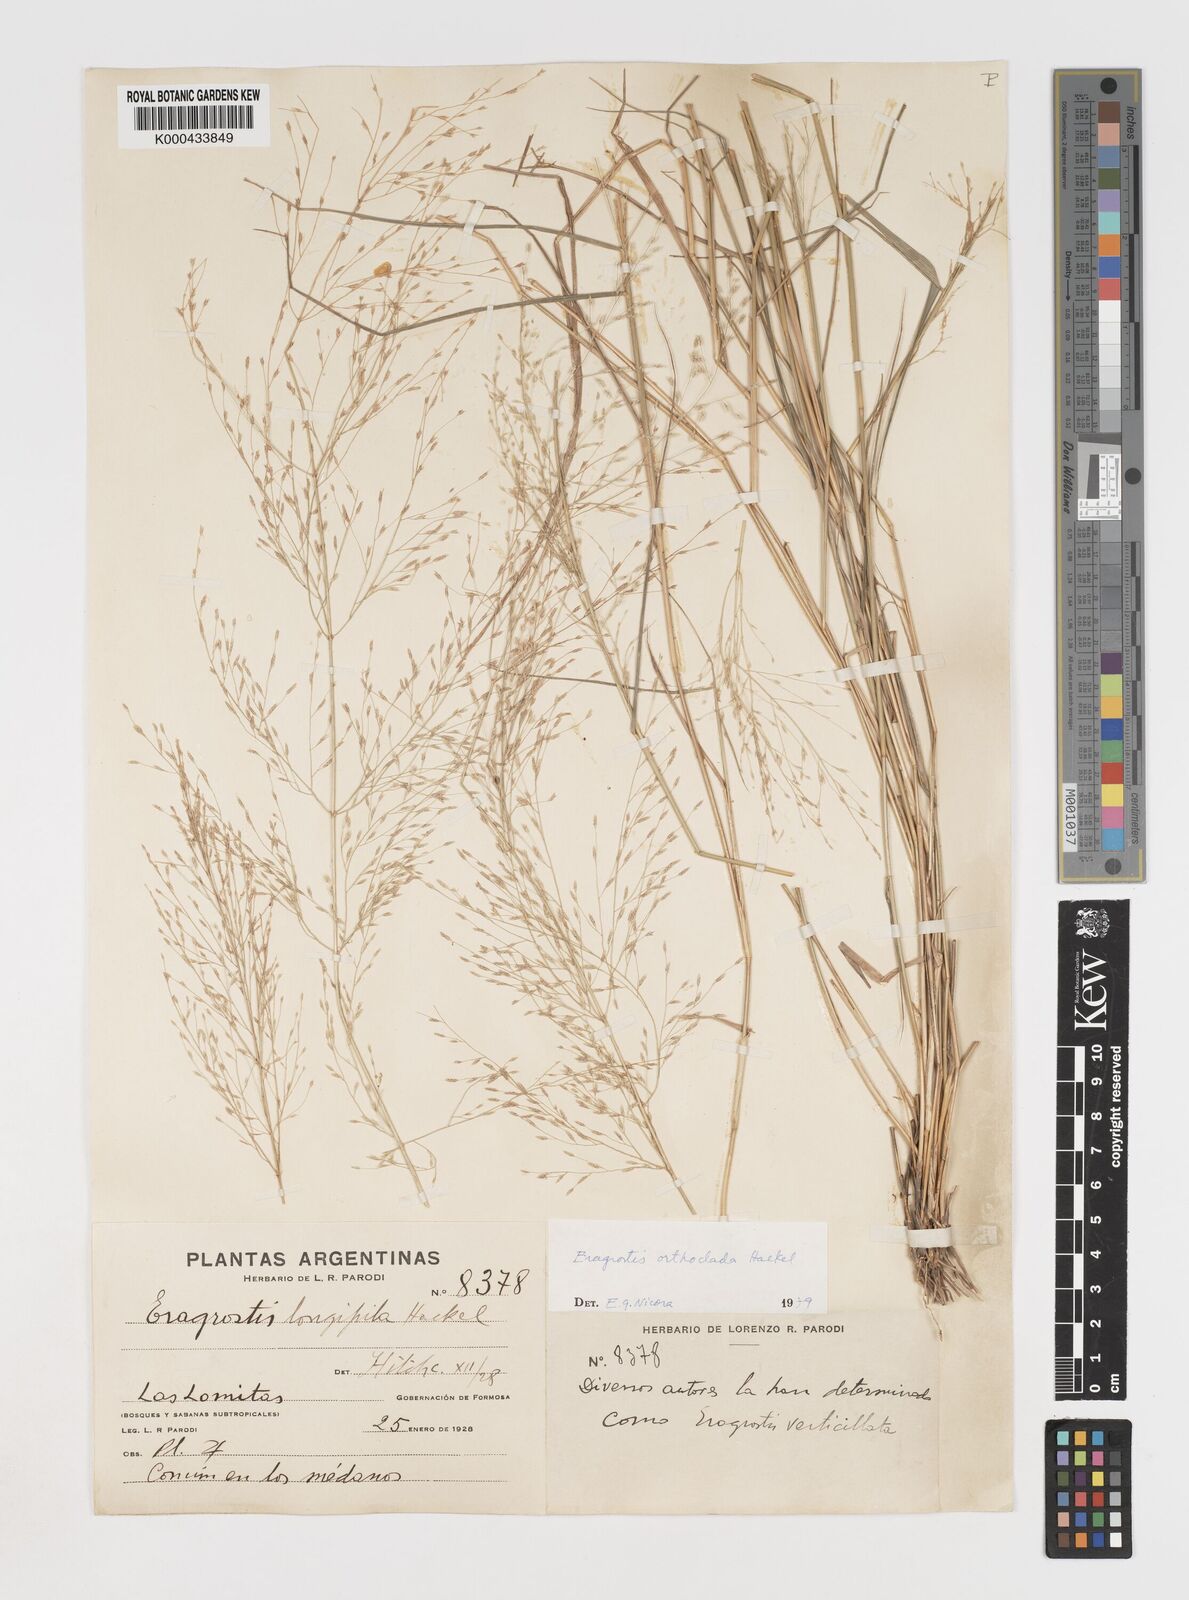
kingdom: Plantae
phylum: Tracheophyta
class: Liliopsida
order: Poales
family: Poaceae
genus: Eragrostis
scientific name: Eragrostis orthoclada
